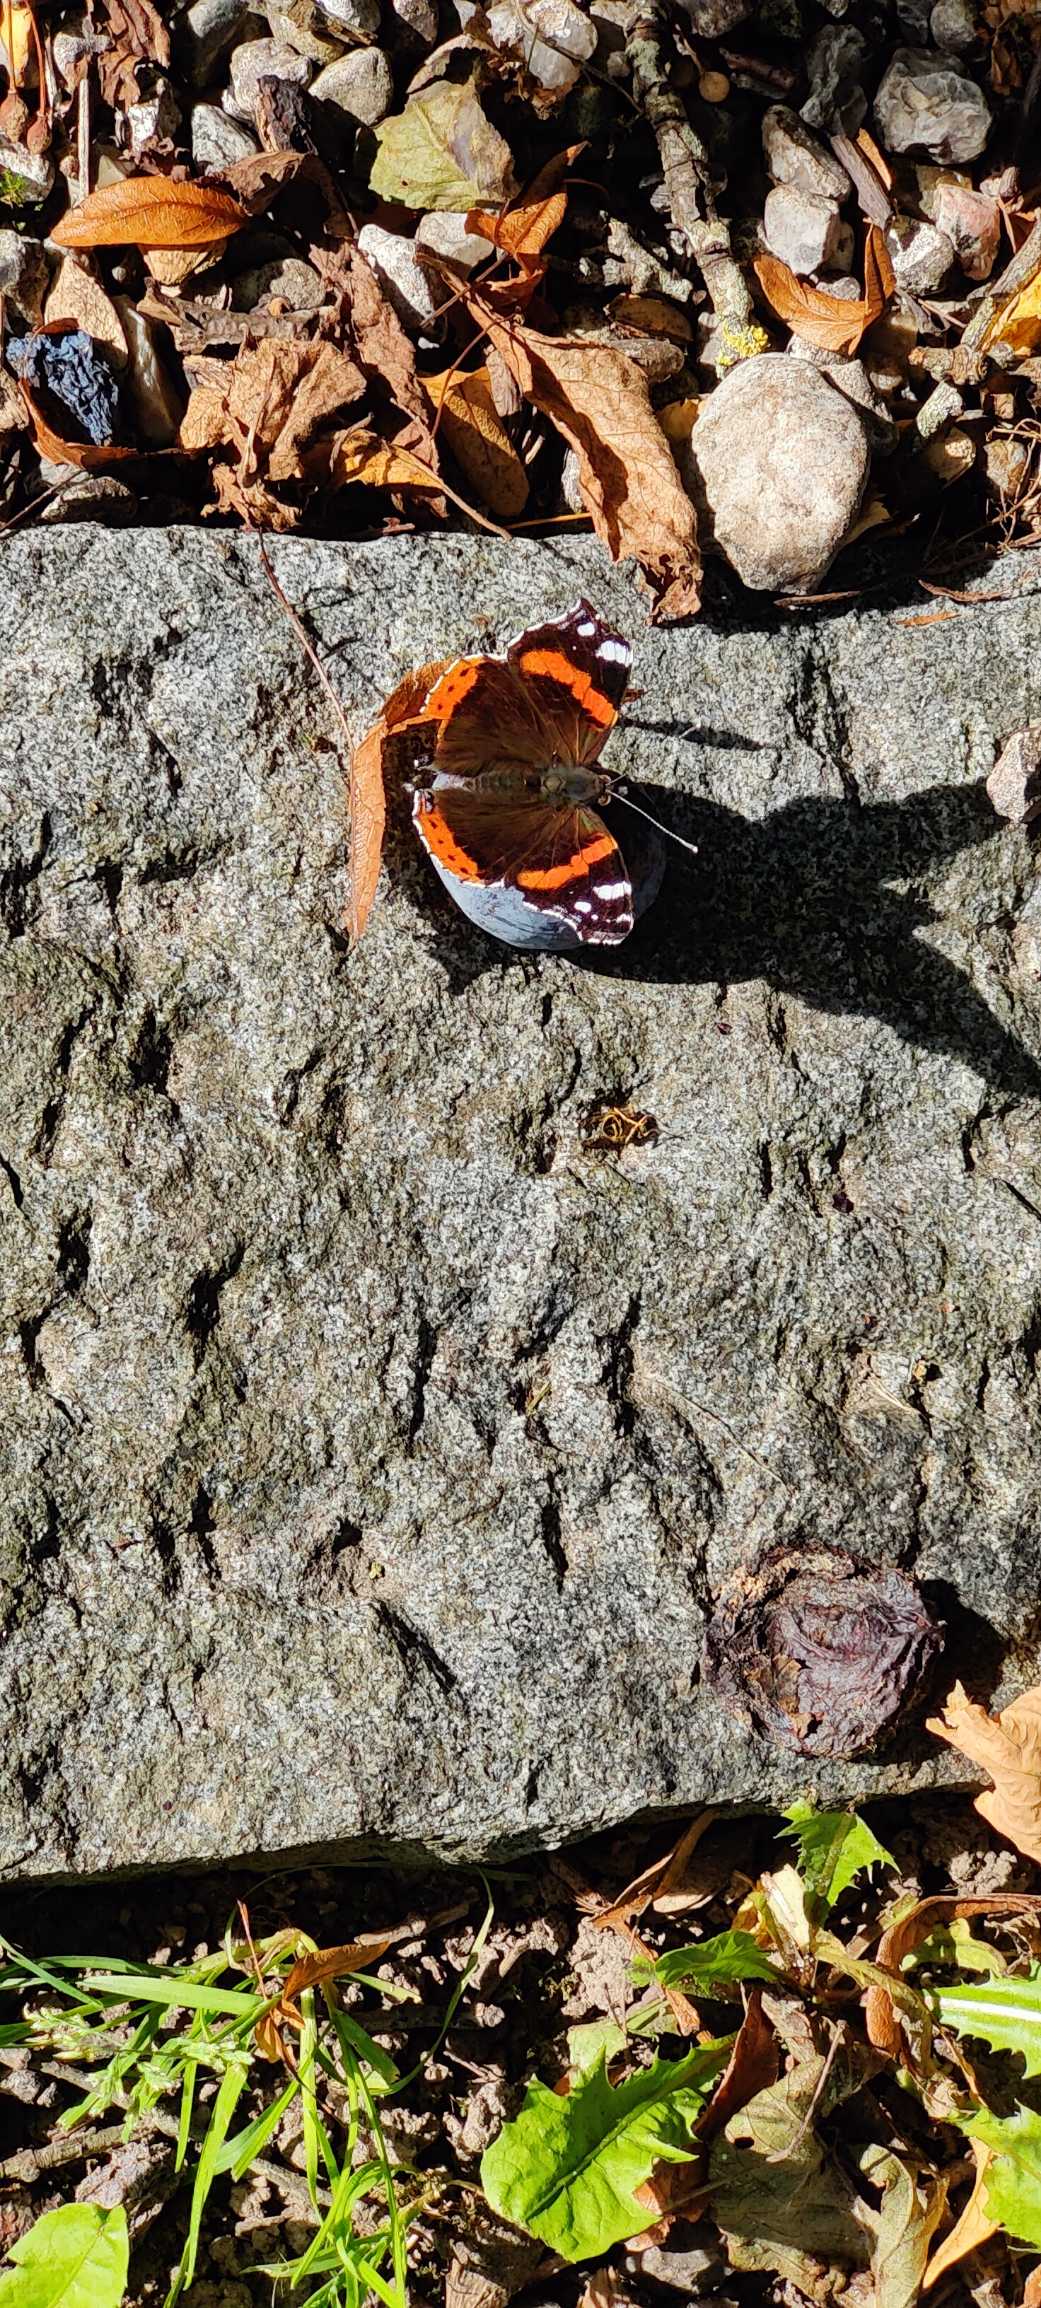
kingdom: Animalia
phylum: Arthropoda
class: Insecta
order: Lepidoptera
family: Nymphalidae
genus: Vanessa
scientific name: Vanessa atalanta
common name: Admiral
